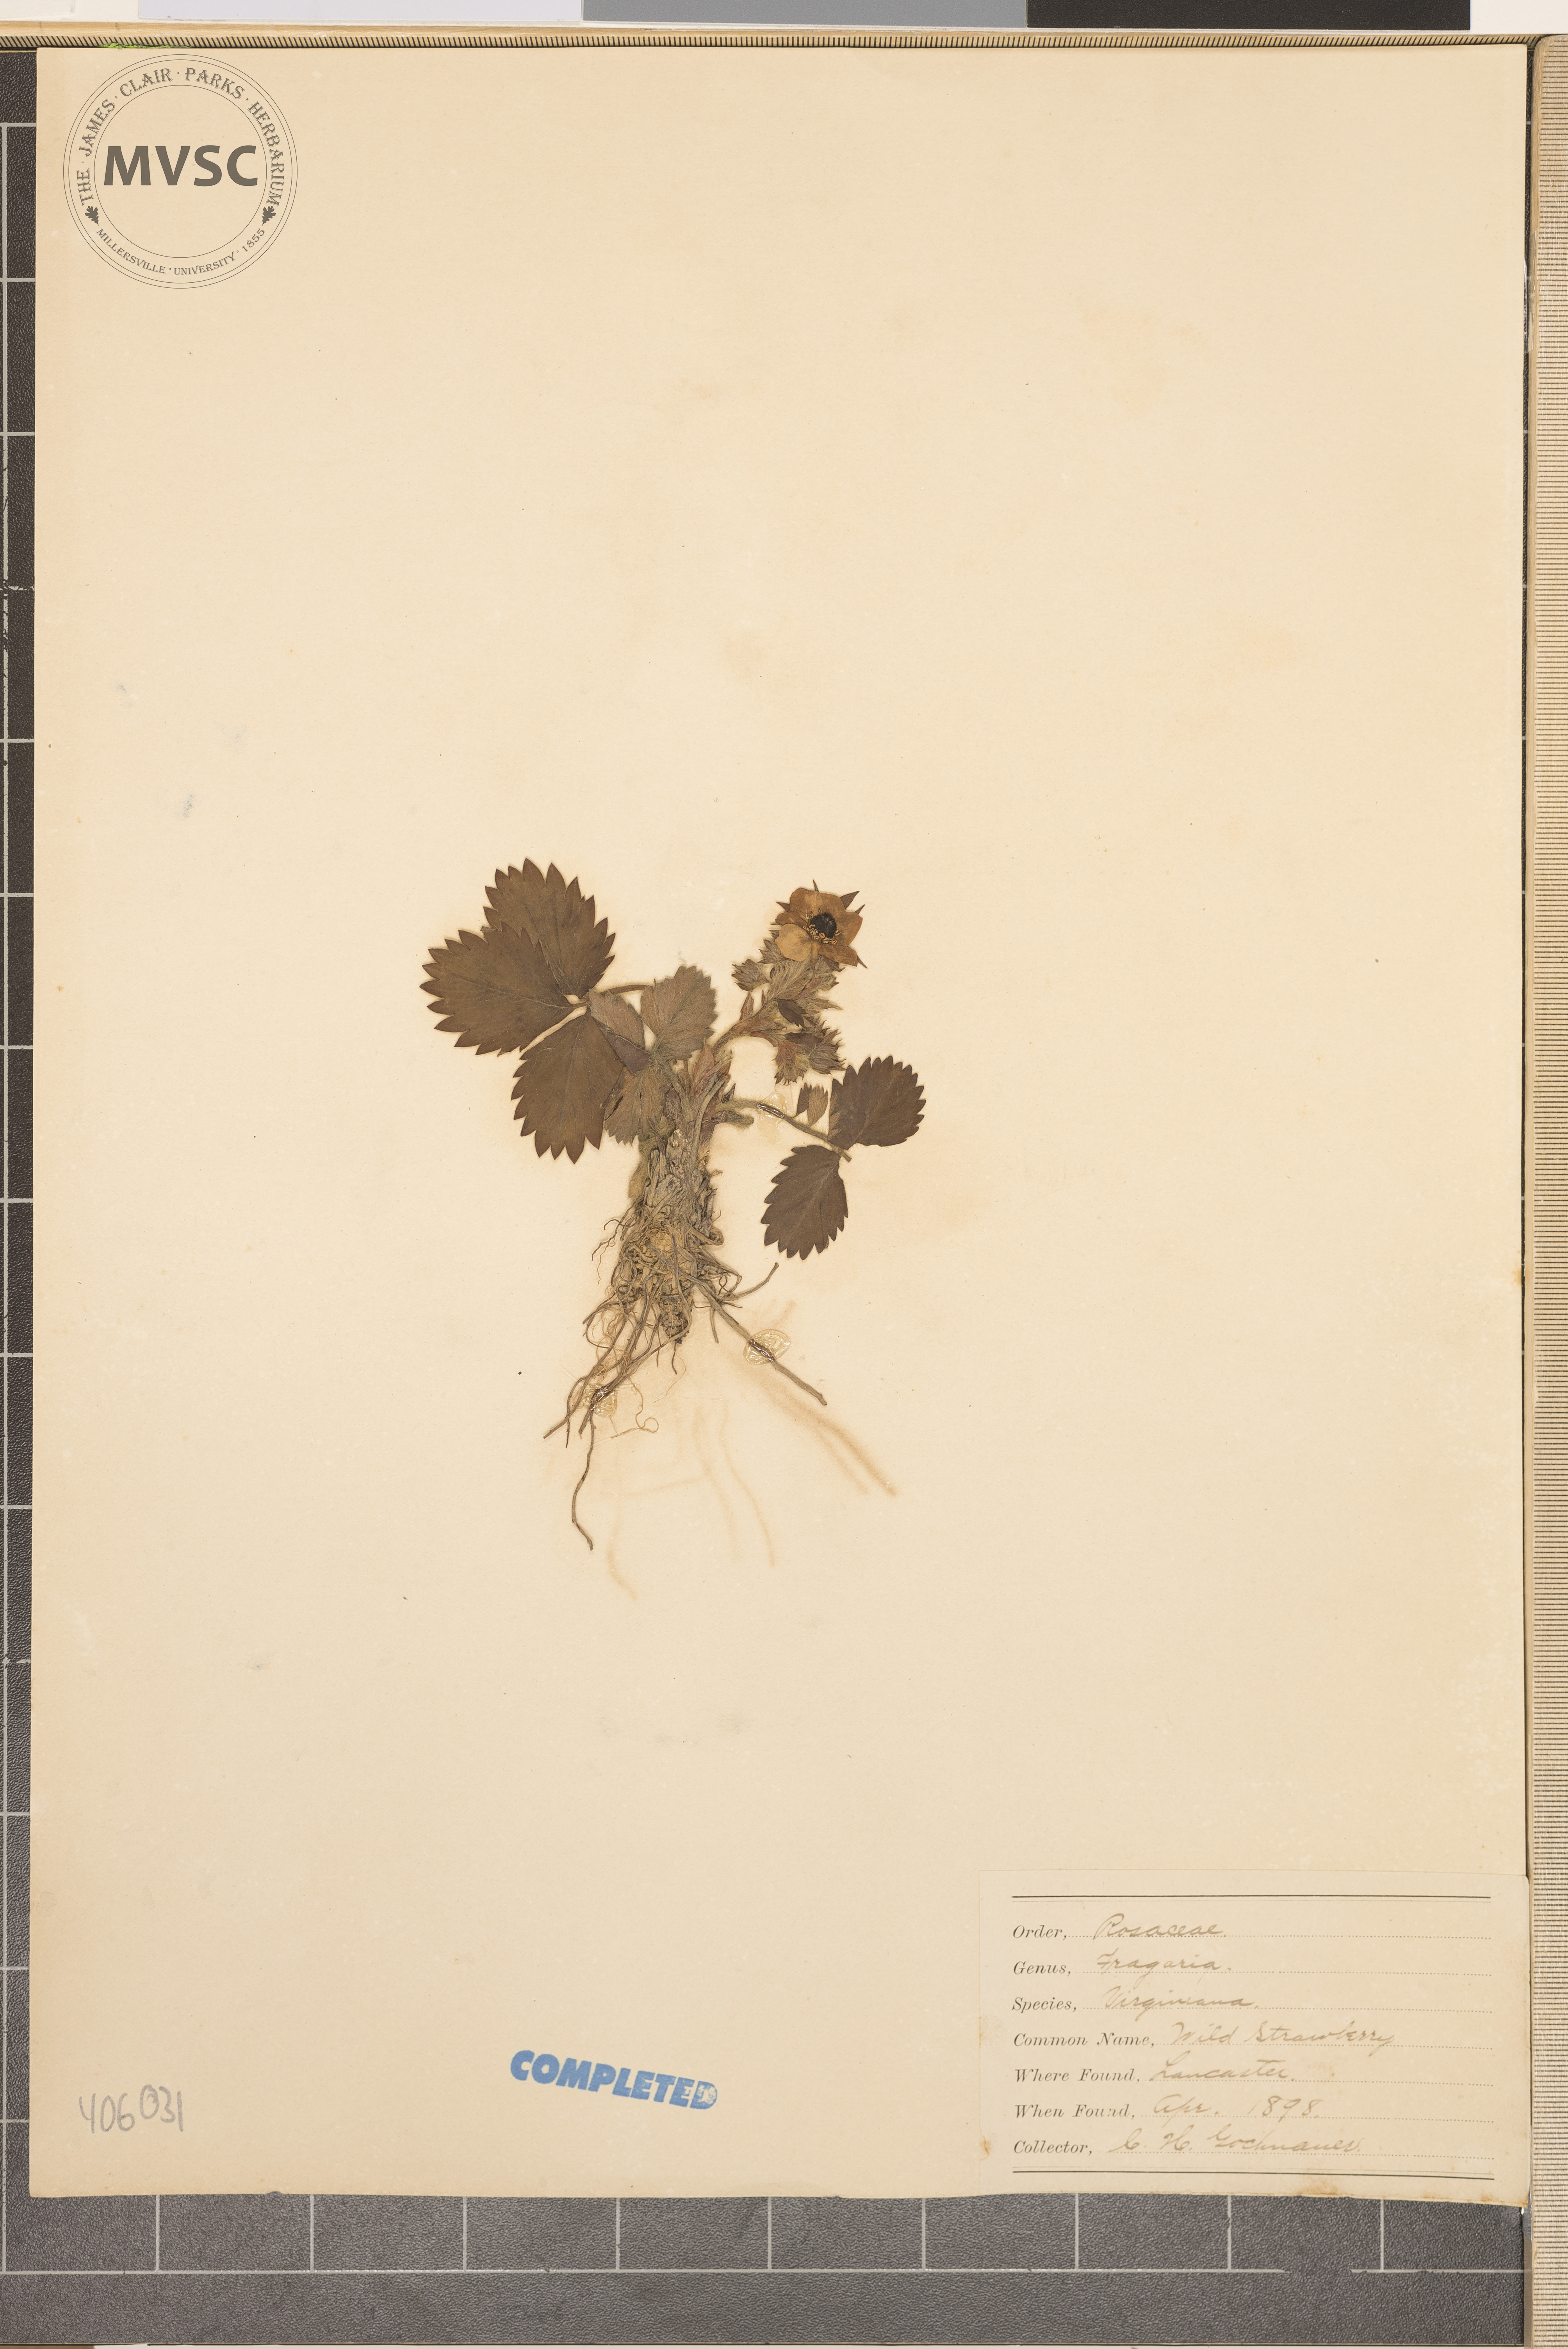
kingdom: Plantae
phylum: Tracheophyta
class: Magnoliopsida
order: Rosales
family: Rosaceae
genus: Fragaria
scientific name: Fragaria virginiana
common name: Thickleaved wild strawberry
